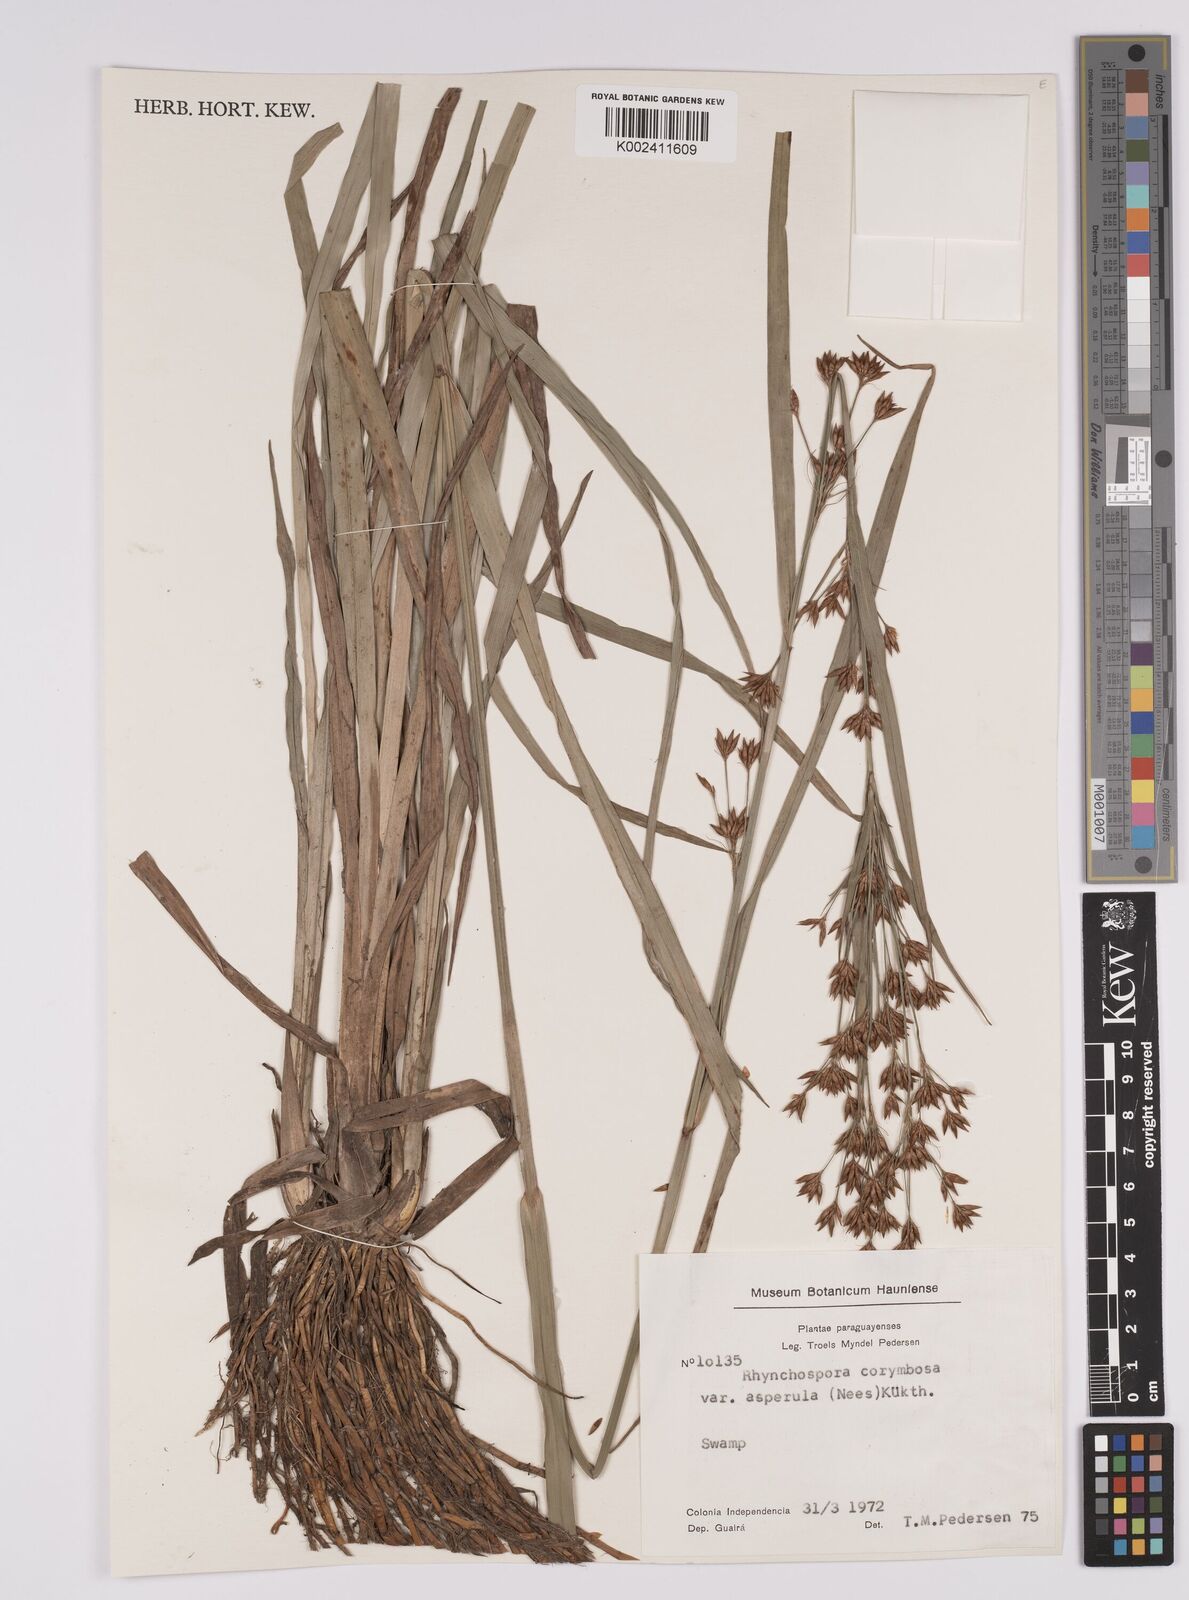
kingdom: Plantae
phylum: Tracheophyta
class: Liliopsida
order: Poales
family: Cyperaceae
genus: Rhynchospora
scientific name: Rhynchospora asperula
